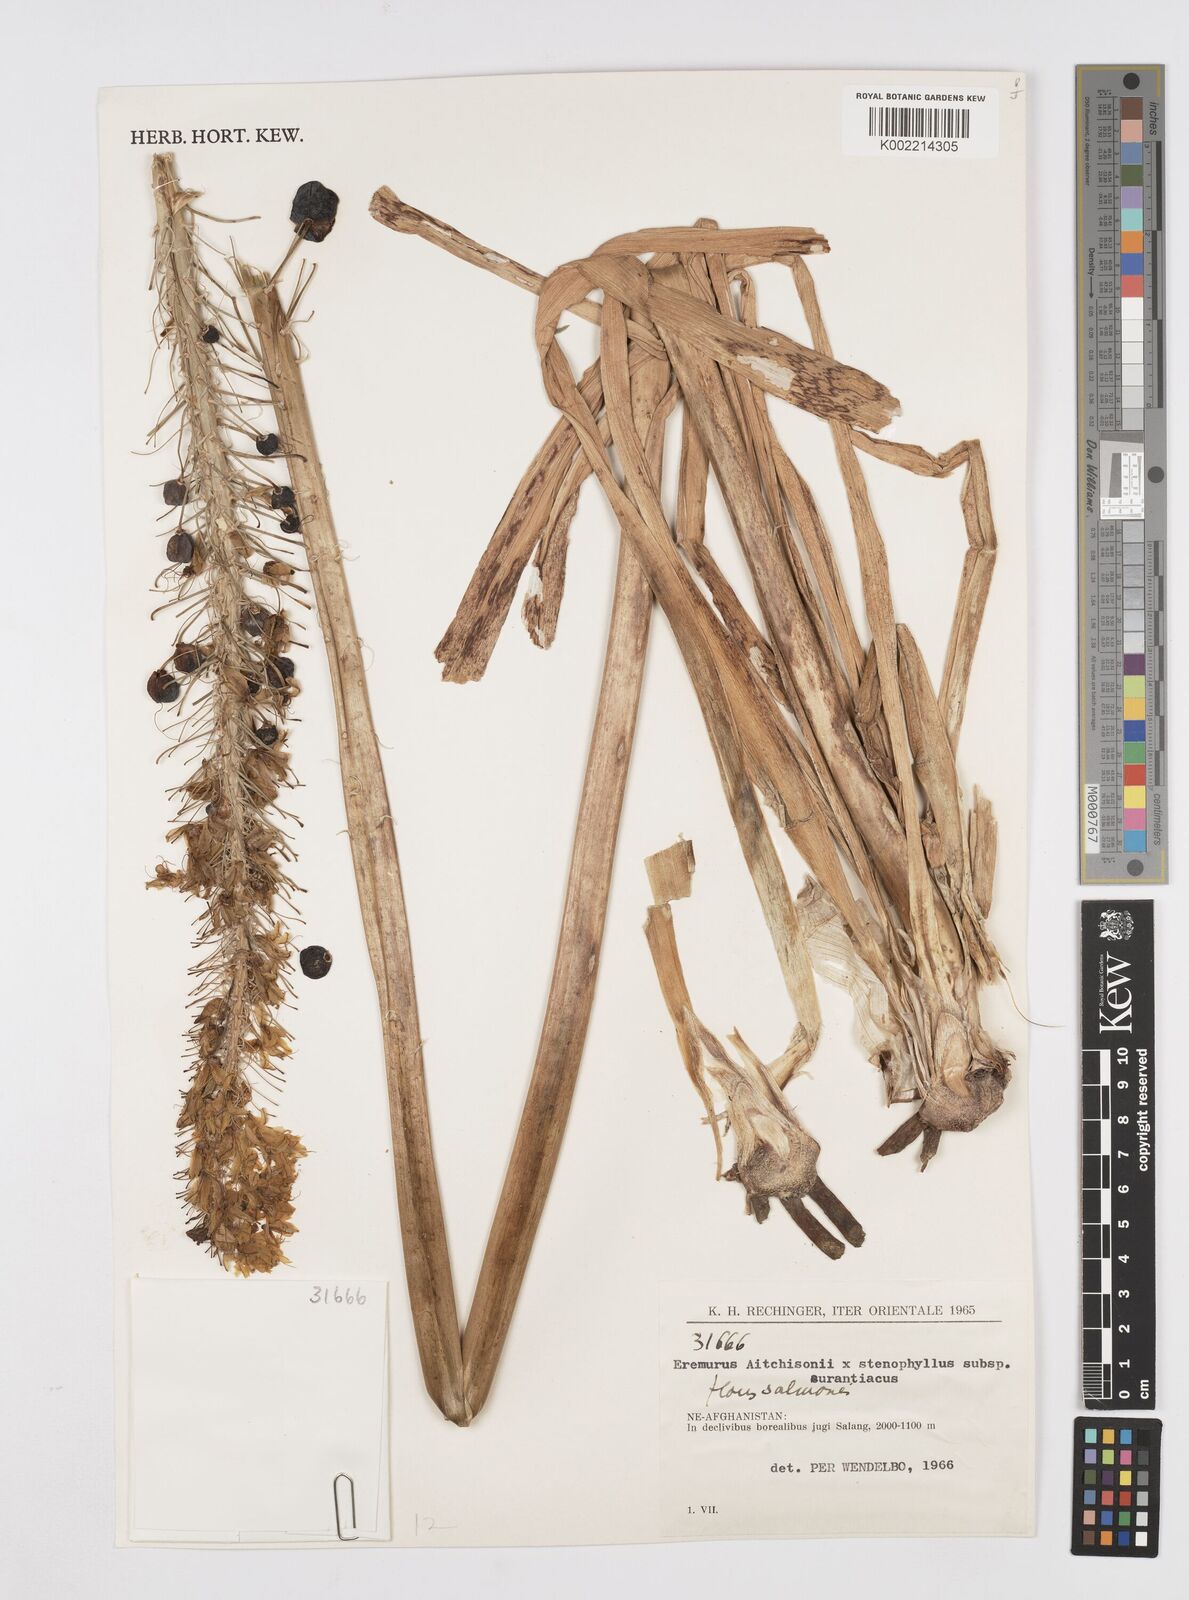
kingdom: Plantae
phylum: Tracheophyta
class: Liliopsida
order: Asparagales
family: Asphodelaceae
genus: Eremurus
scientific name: Eremurus aitchisonii
